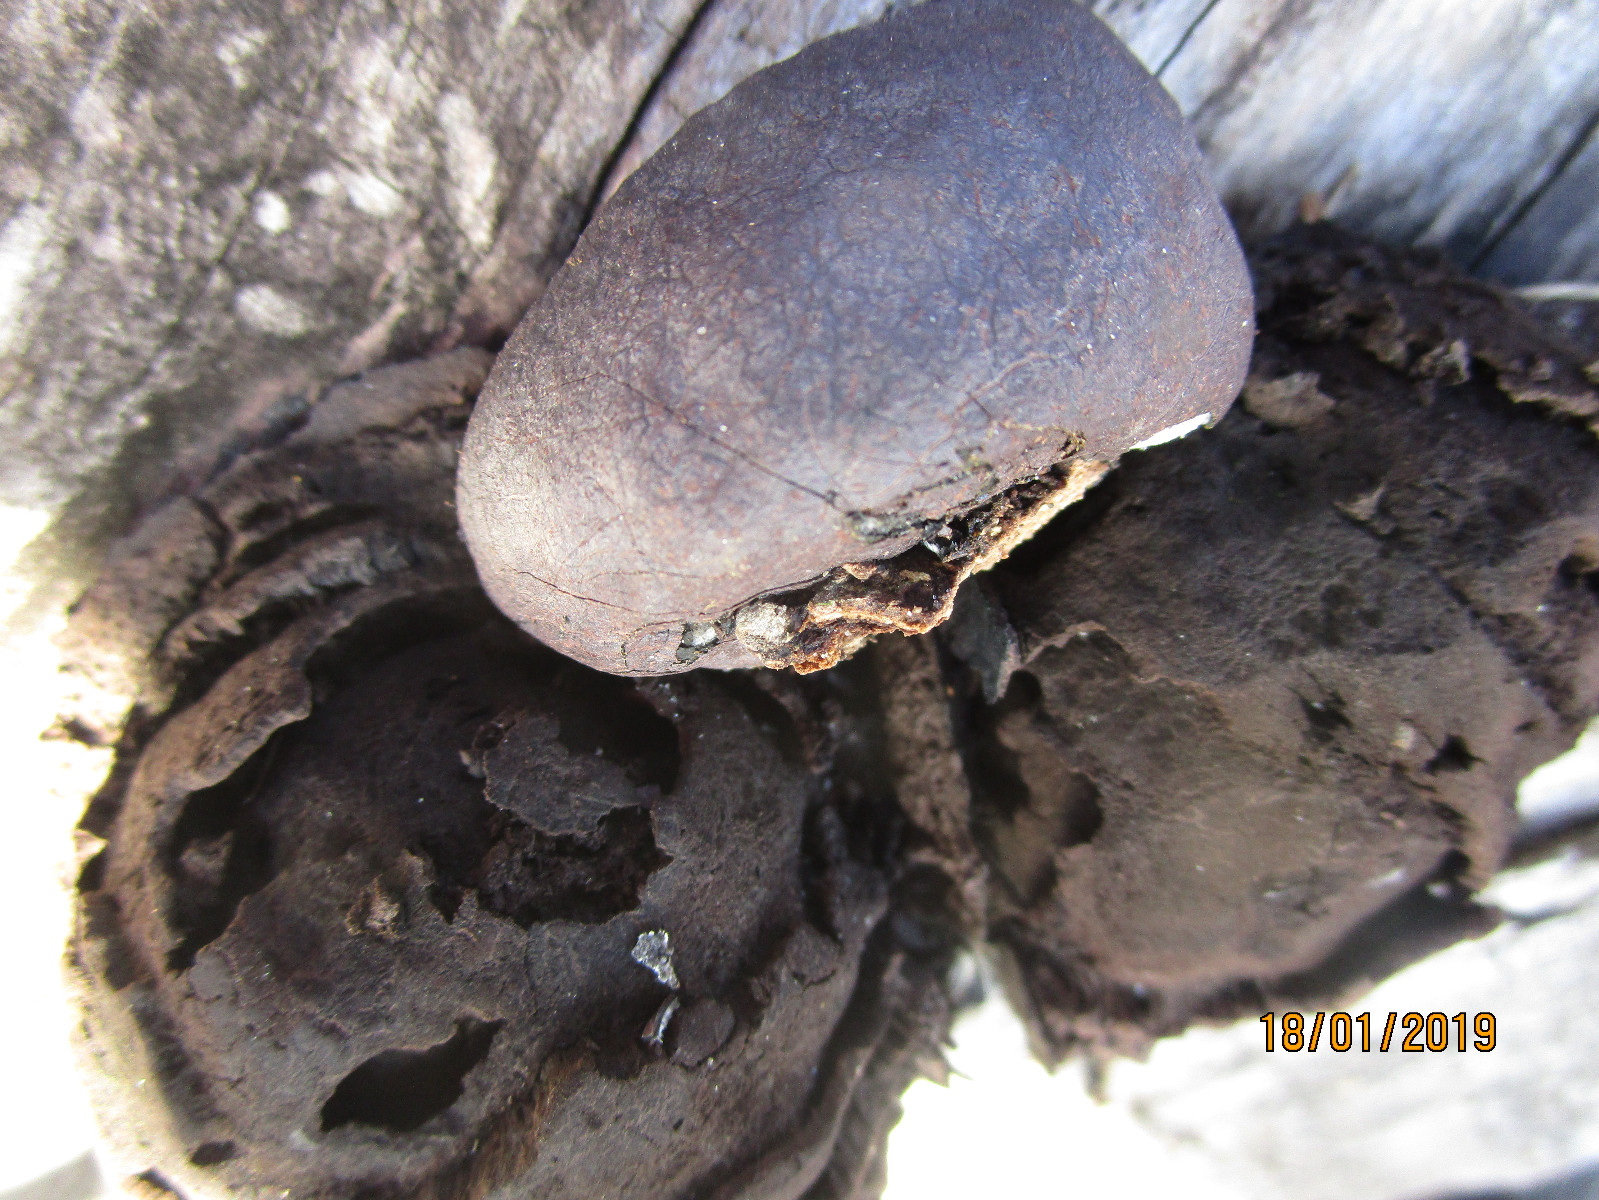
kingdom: Fungi
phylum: Ascomycota
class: Sordariomycetes
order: Xylariales
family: Hypoxylaceae
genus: Daldinia
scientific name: Daldinia concentrica
